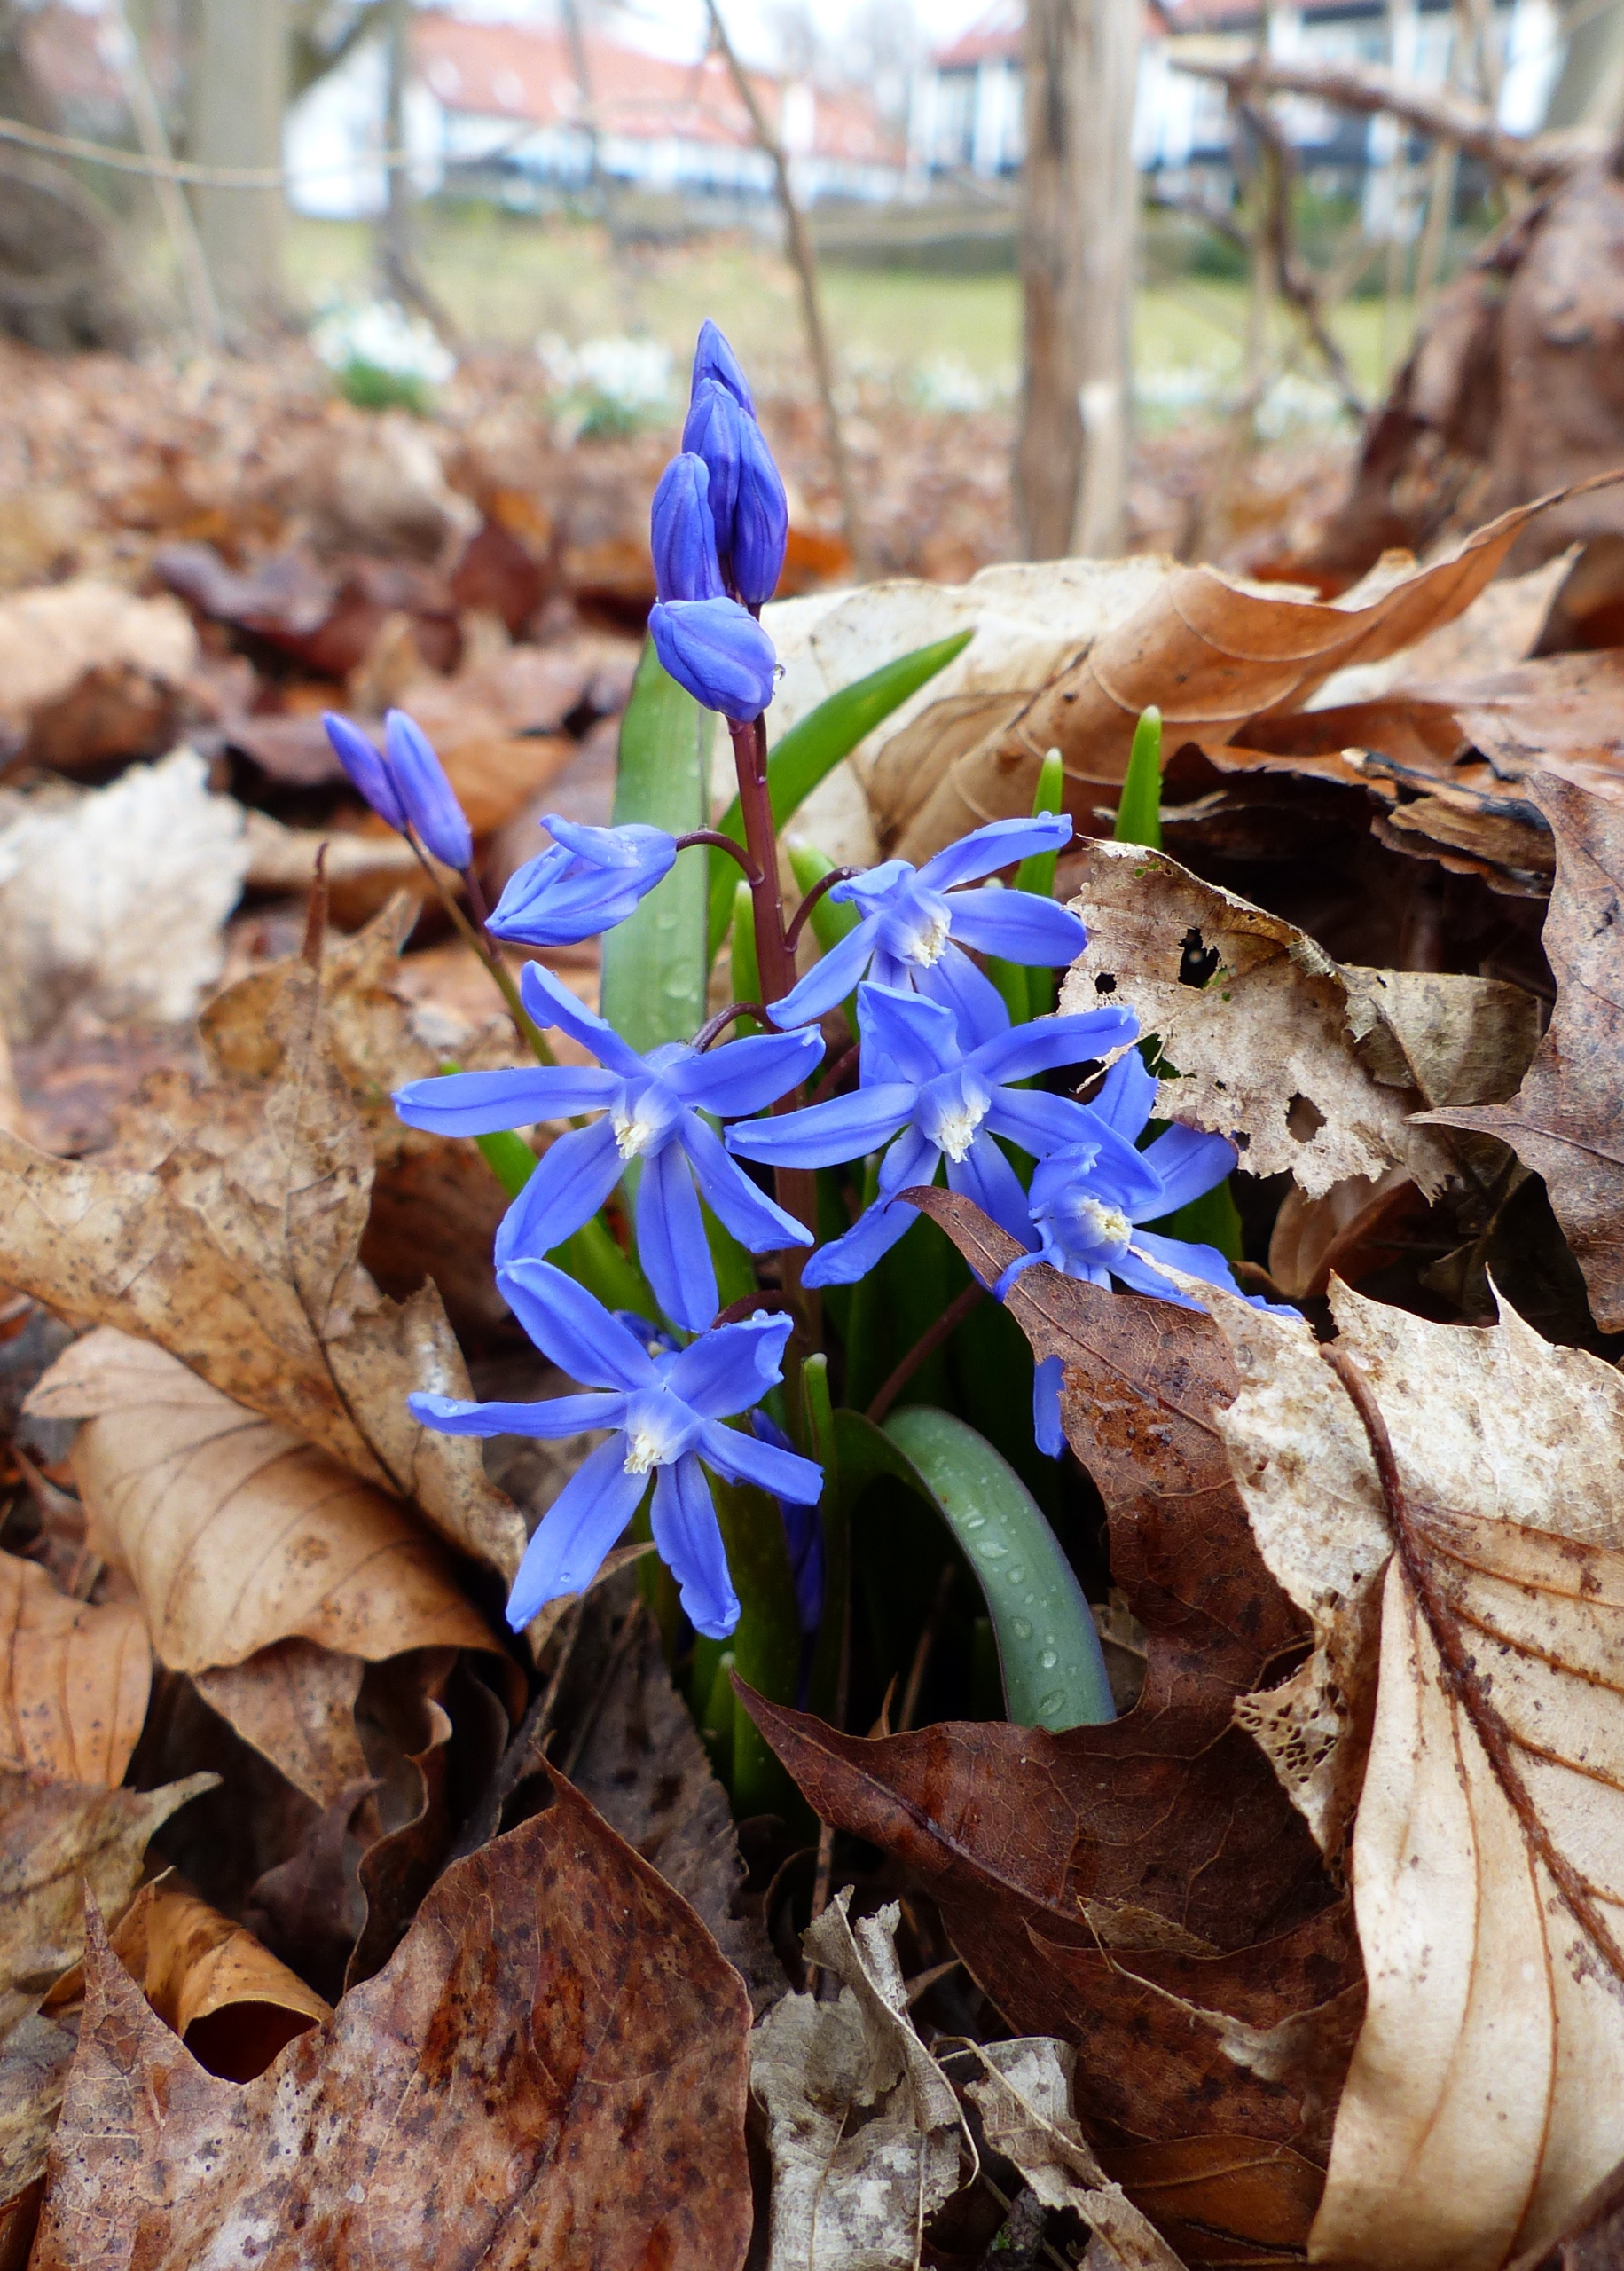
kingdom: Plantae
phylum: Tracheophyta
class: Liliopsida
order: Asparagales
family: Asparagaceae
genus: Scilla
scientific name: Scilla sardensis
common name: Liden snepryd
